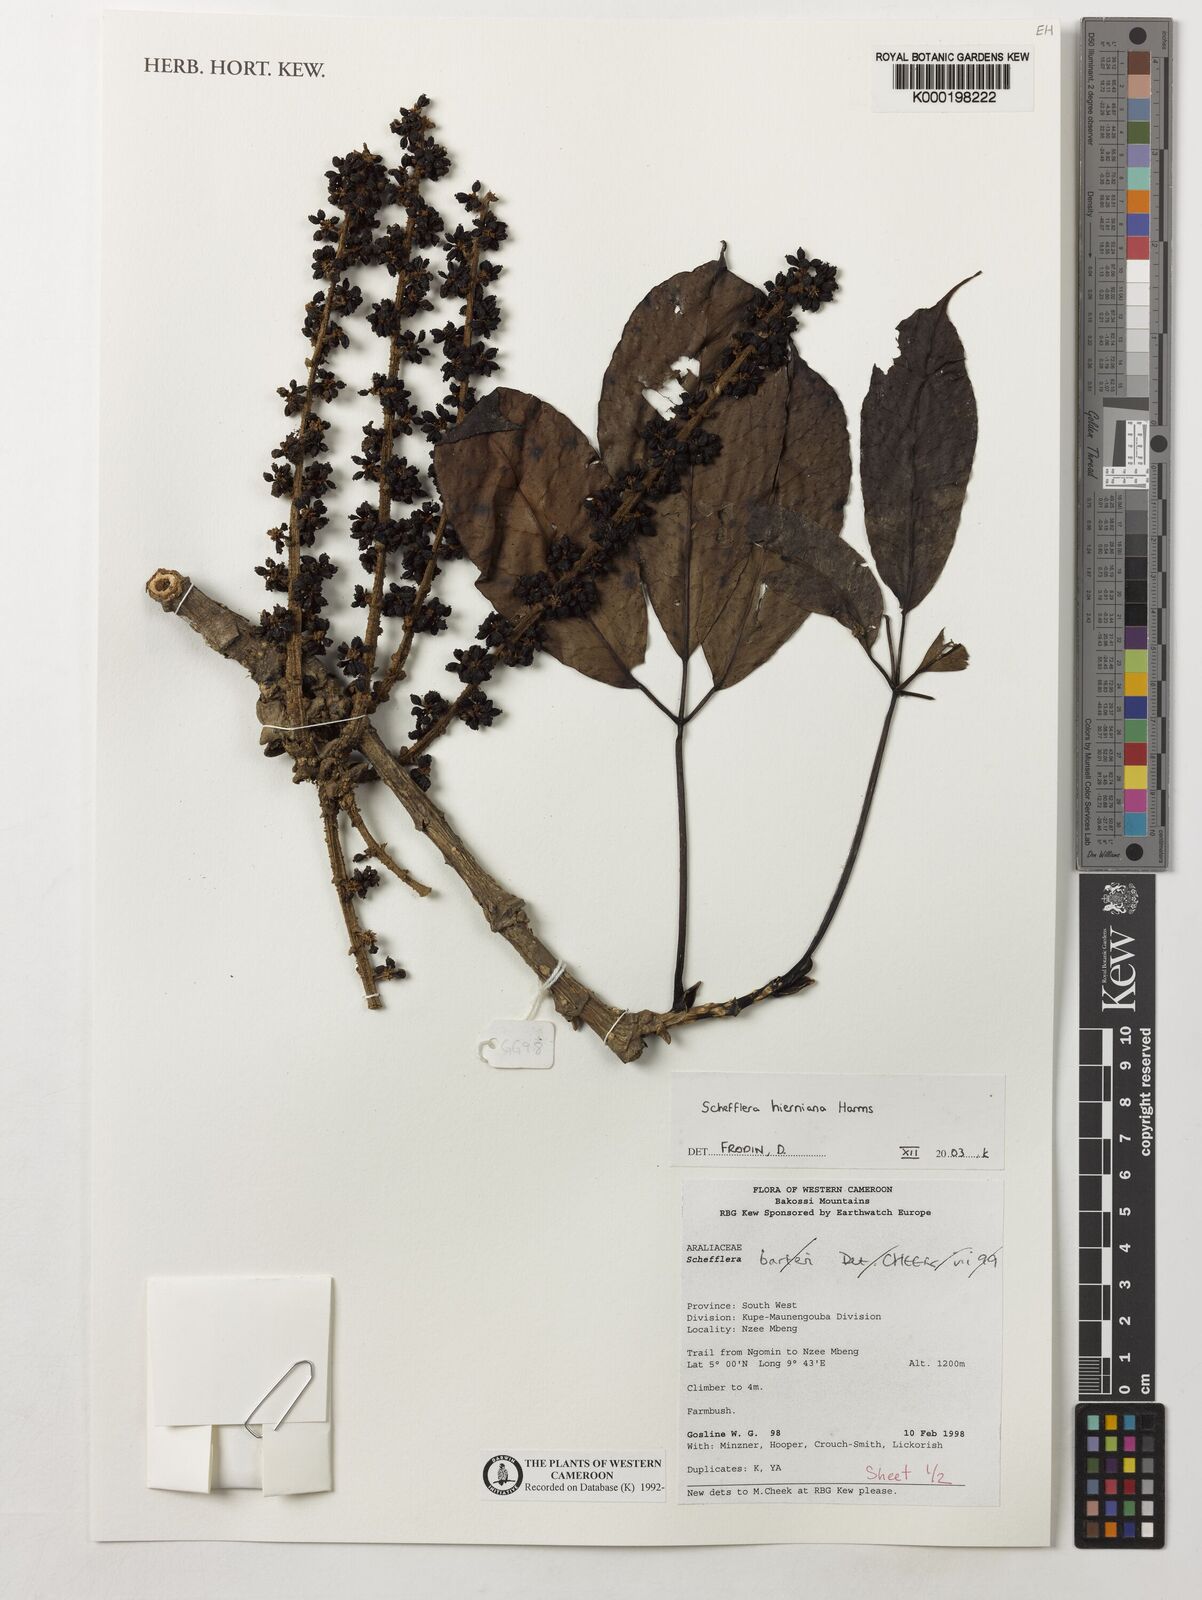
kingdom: Plantae
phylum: Tracheophyta
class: Magnoliopsida
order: Apiales
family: Araliaceae
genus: Astropanax
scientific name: Astropanax barteri
